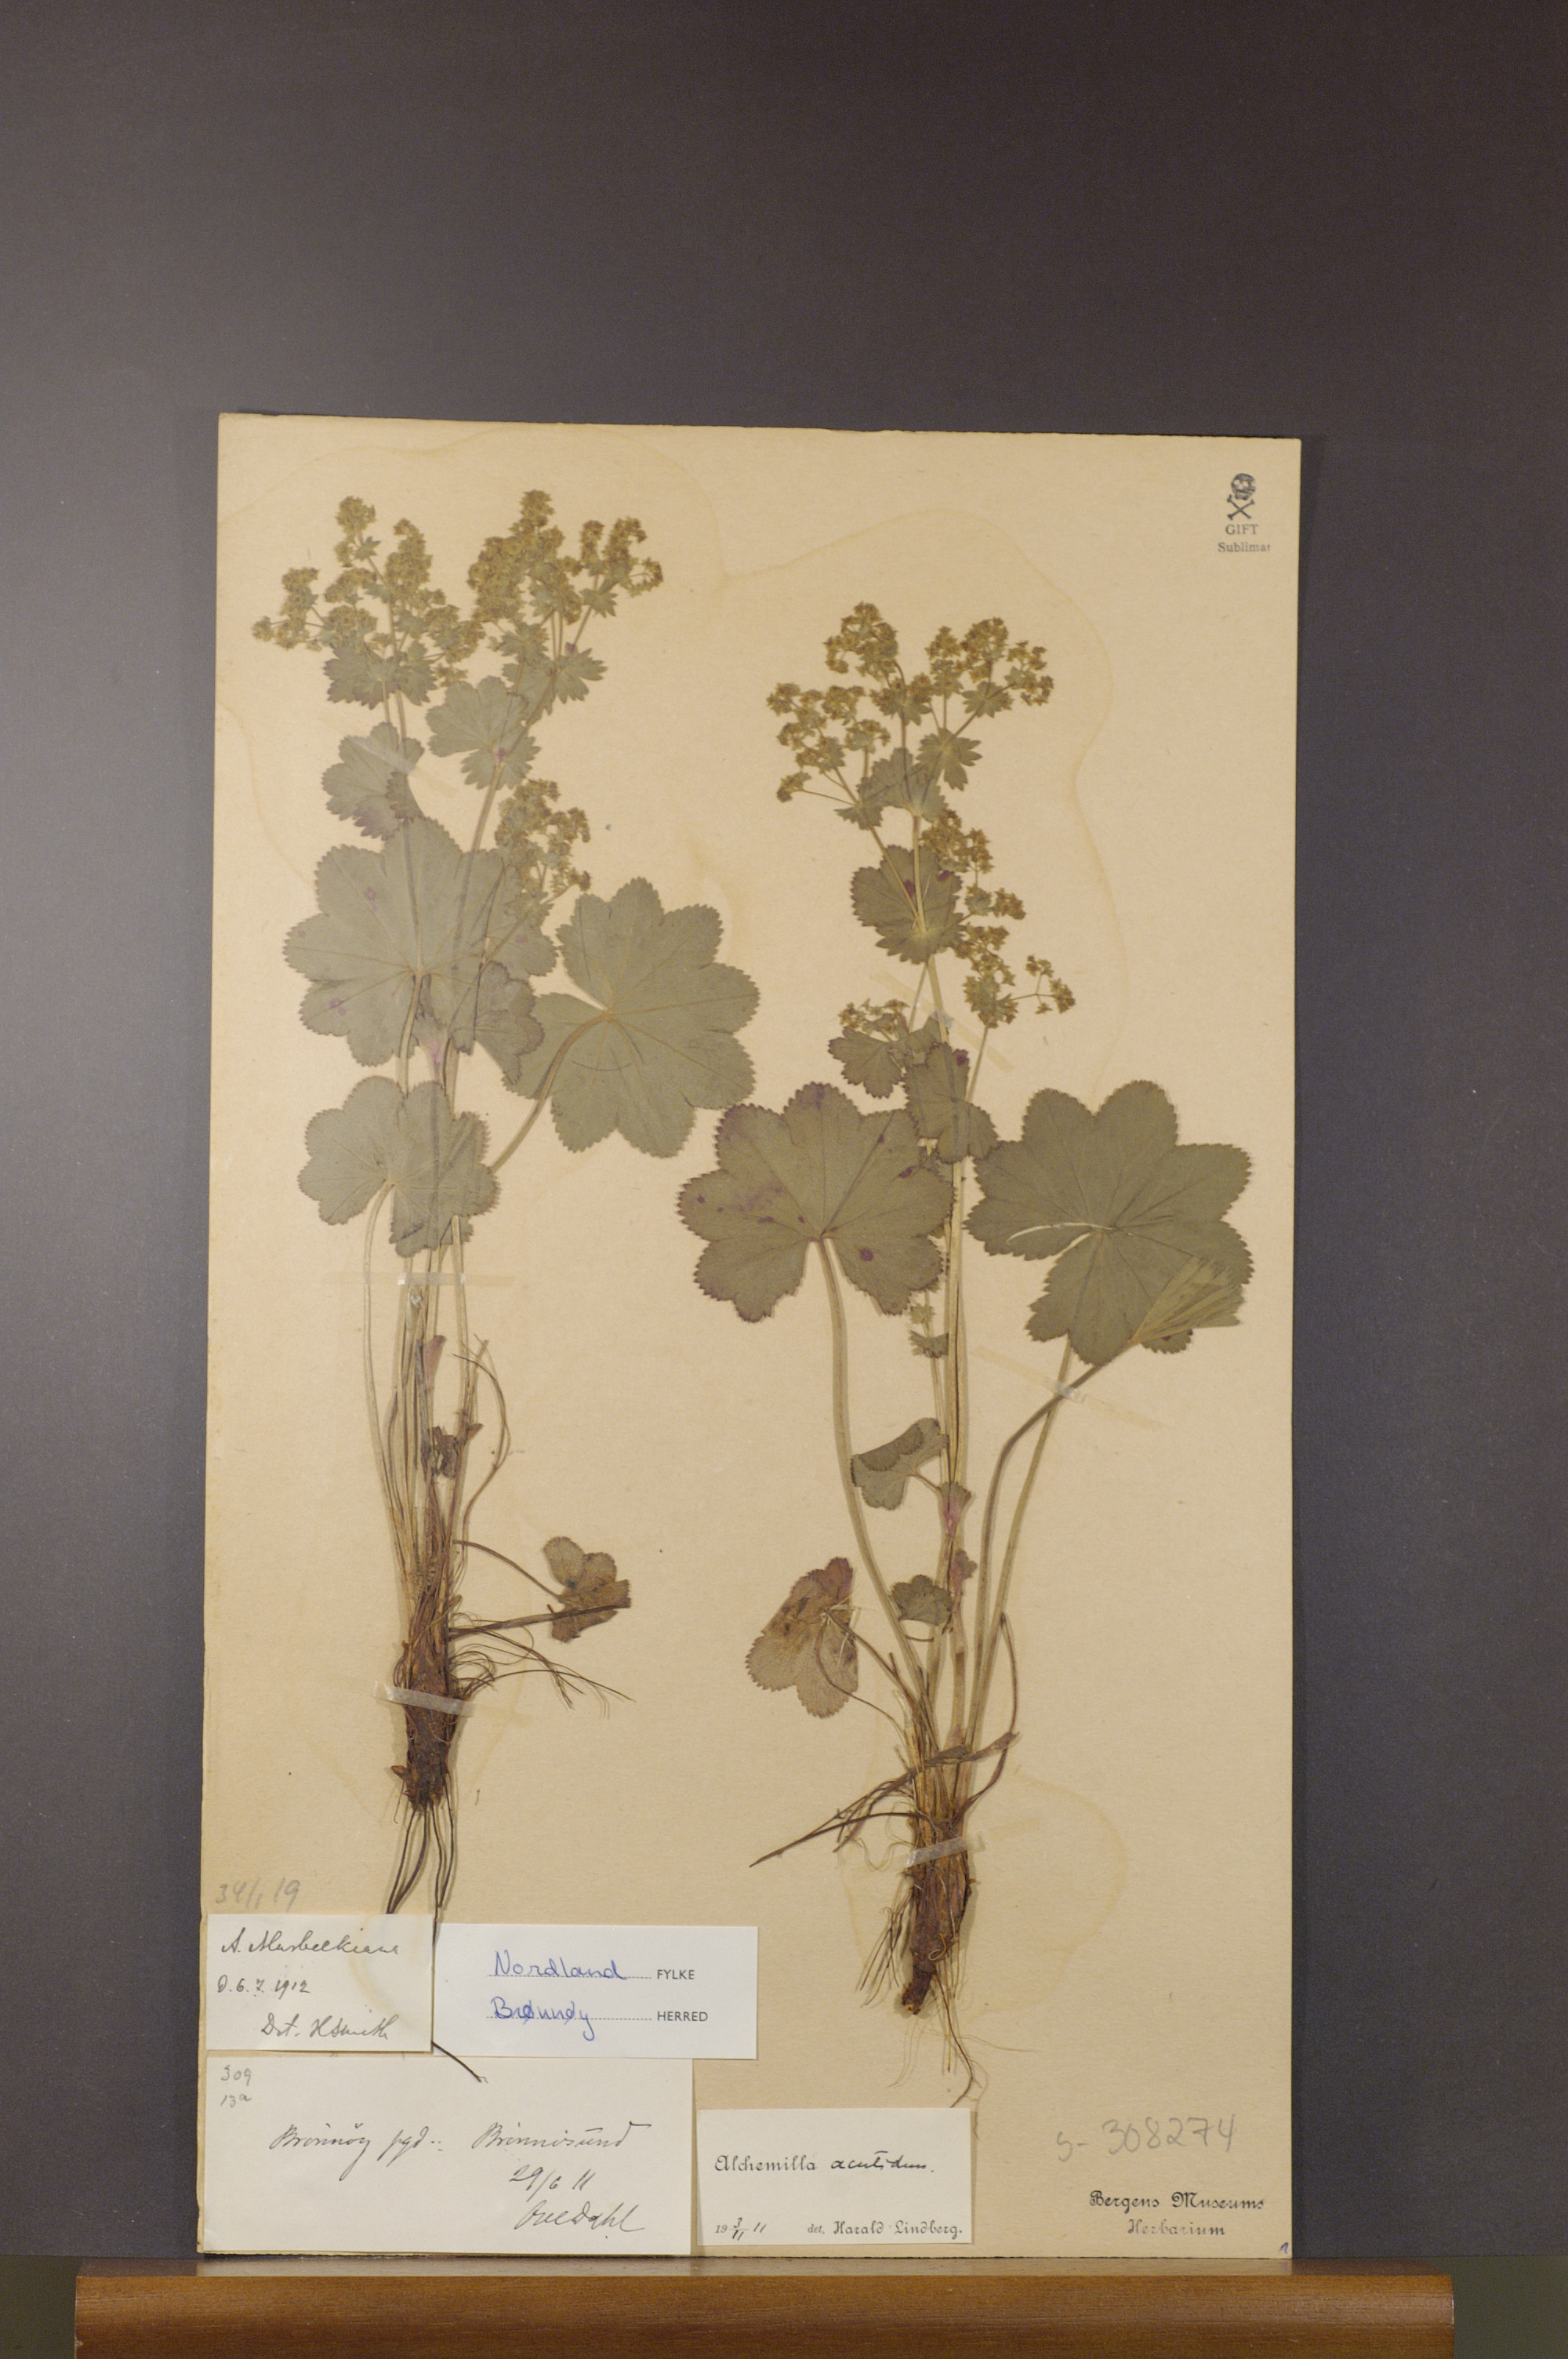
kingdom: Plantae
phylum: Tracheophyta
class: Magnoliopsida
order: Rosales
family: Rosaceae
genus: Alchemilla
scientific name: Alchemilla murbeckiana
